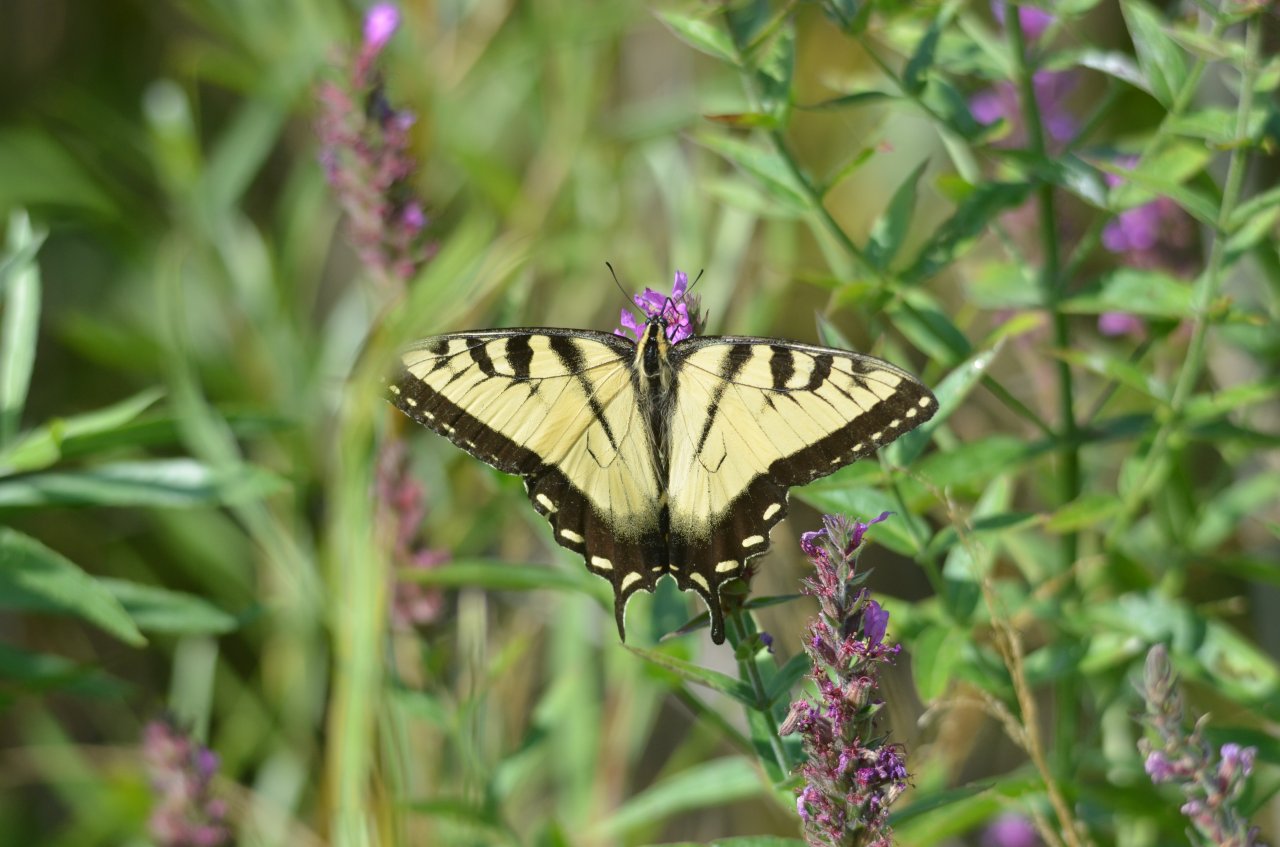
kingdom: Animalia
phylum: Arthropoda
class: Insecta
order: Lepidoptera
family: Papilionidae
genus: Pterourus
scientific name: Pterourus glaucus
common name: Eastern Tiger Swallowtail
